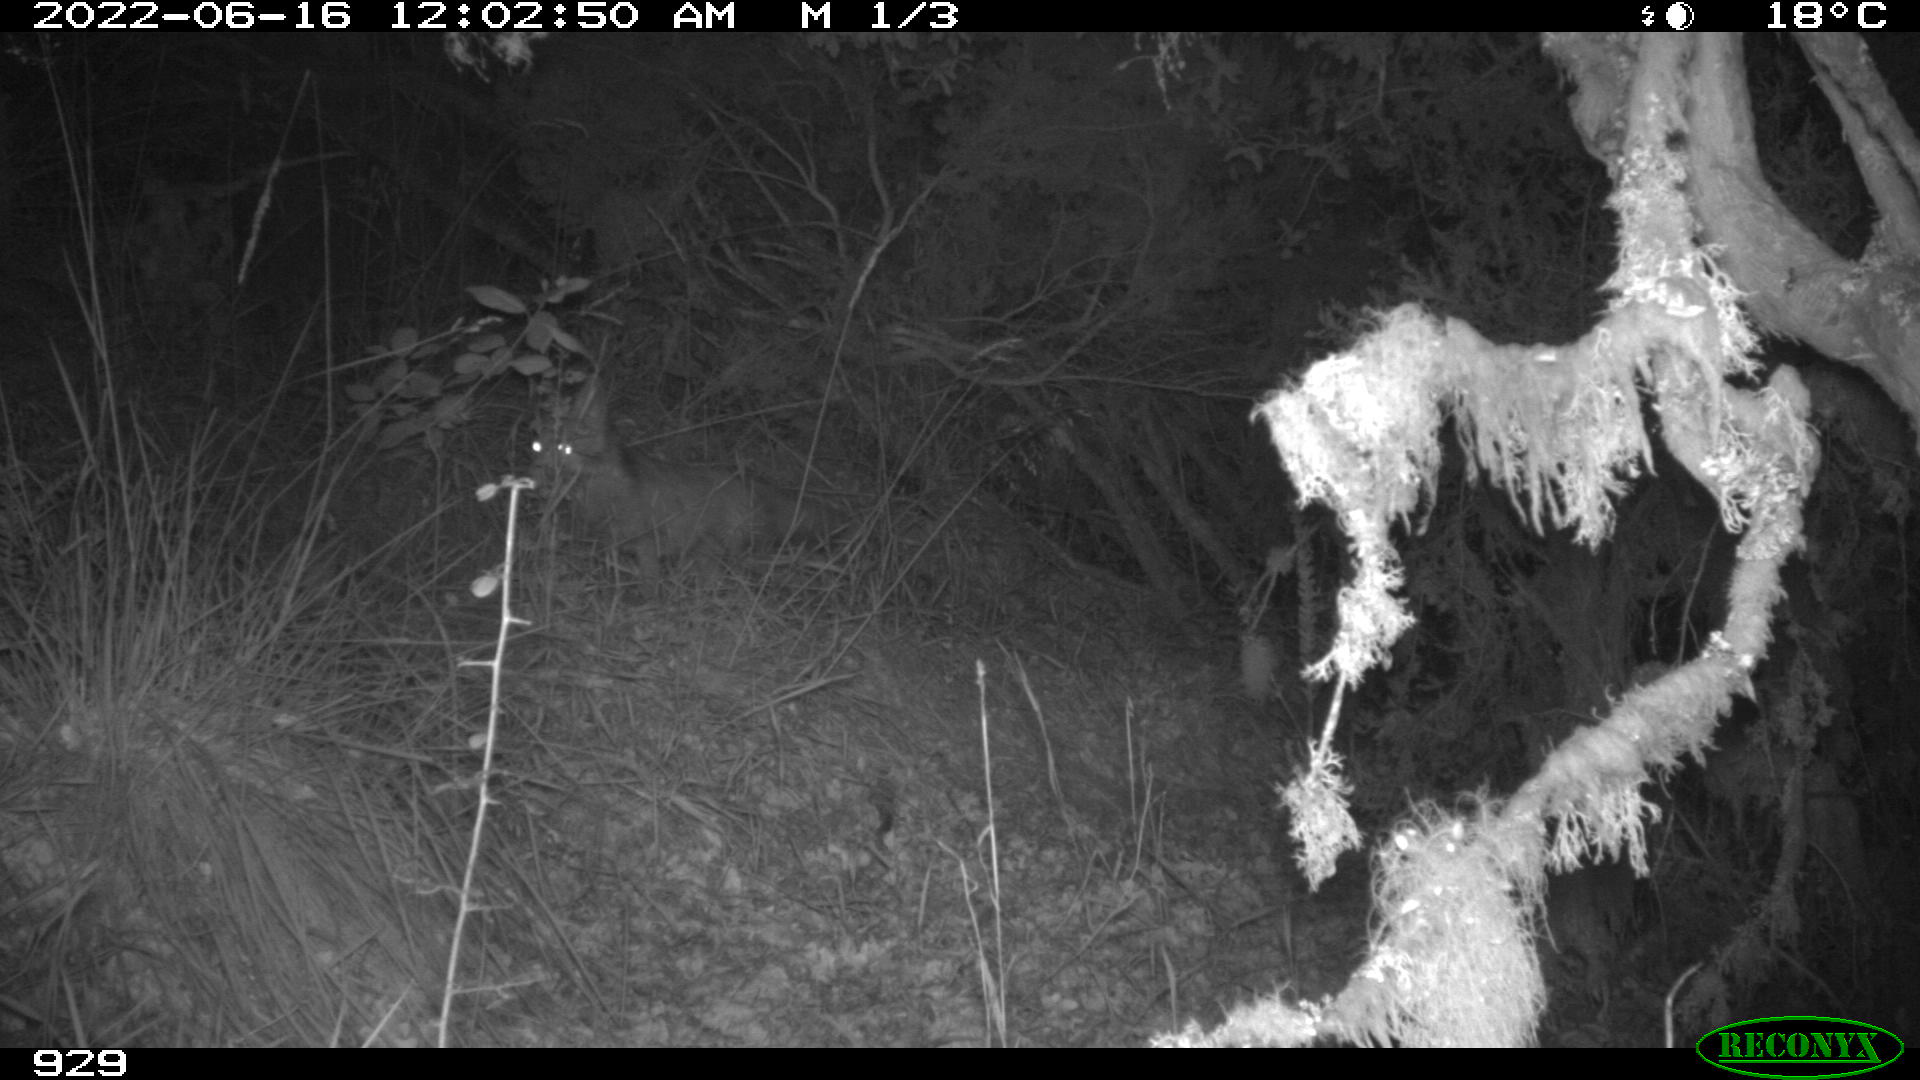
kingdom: Animalia
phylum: Chordata
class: Mammalia
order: Carnivora
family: Canidae
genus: Vulpes
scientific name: Vulpes vulpes
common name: Red fox
